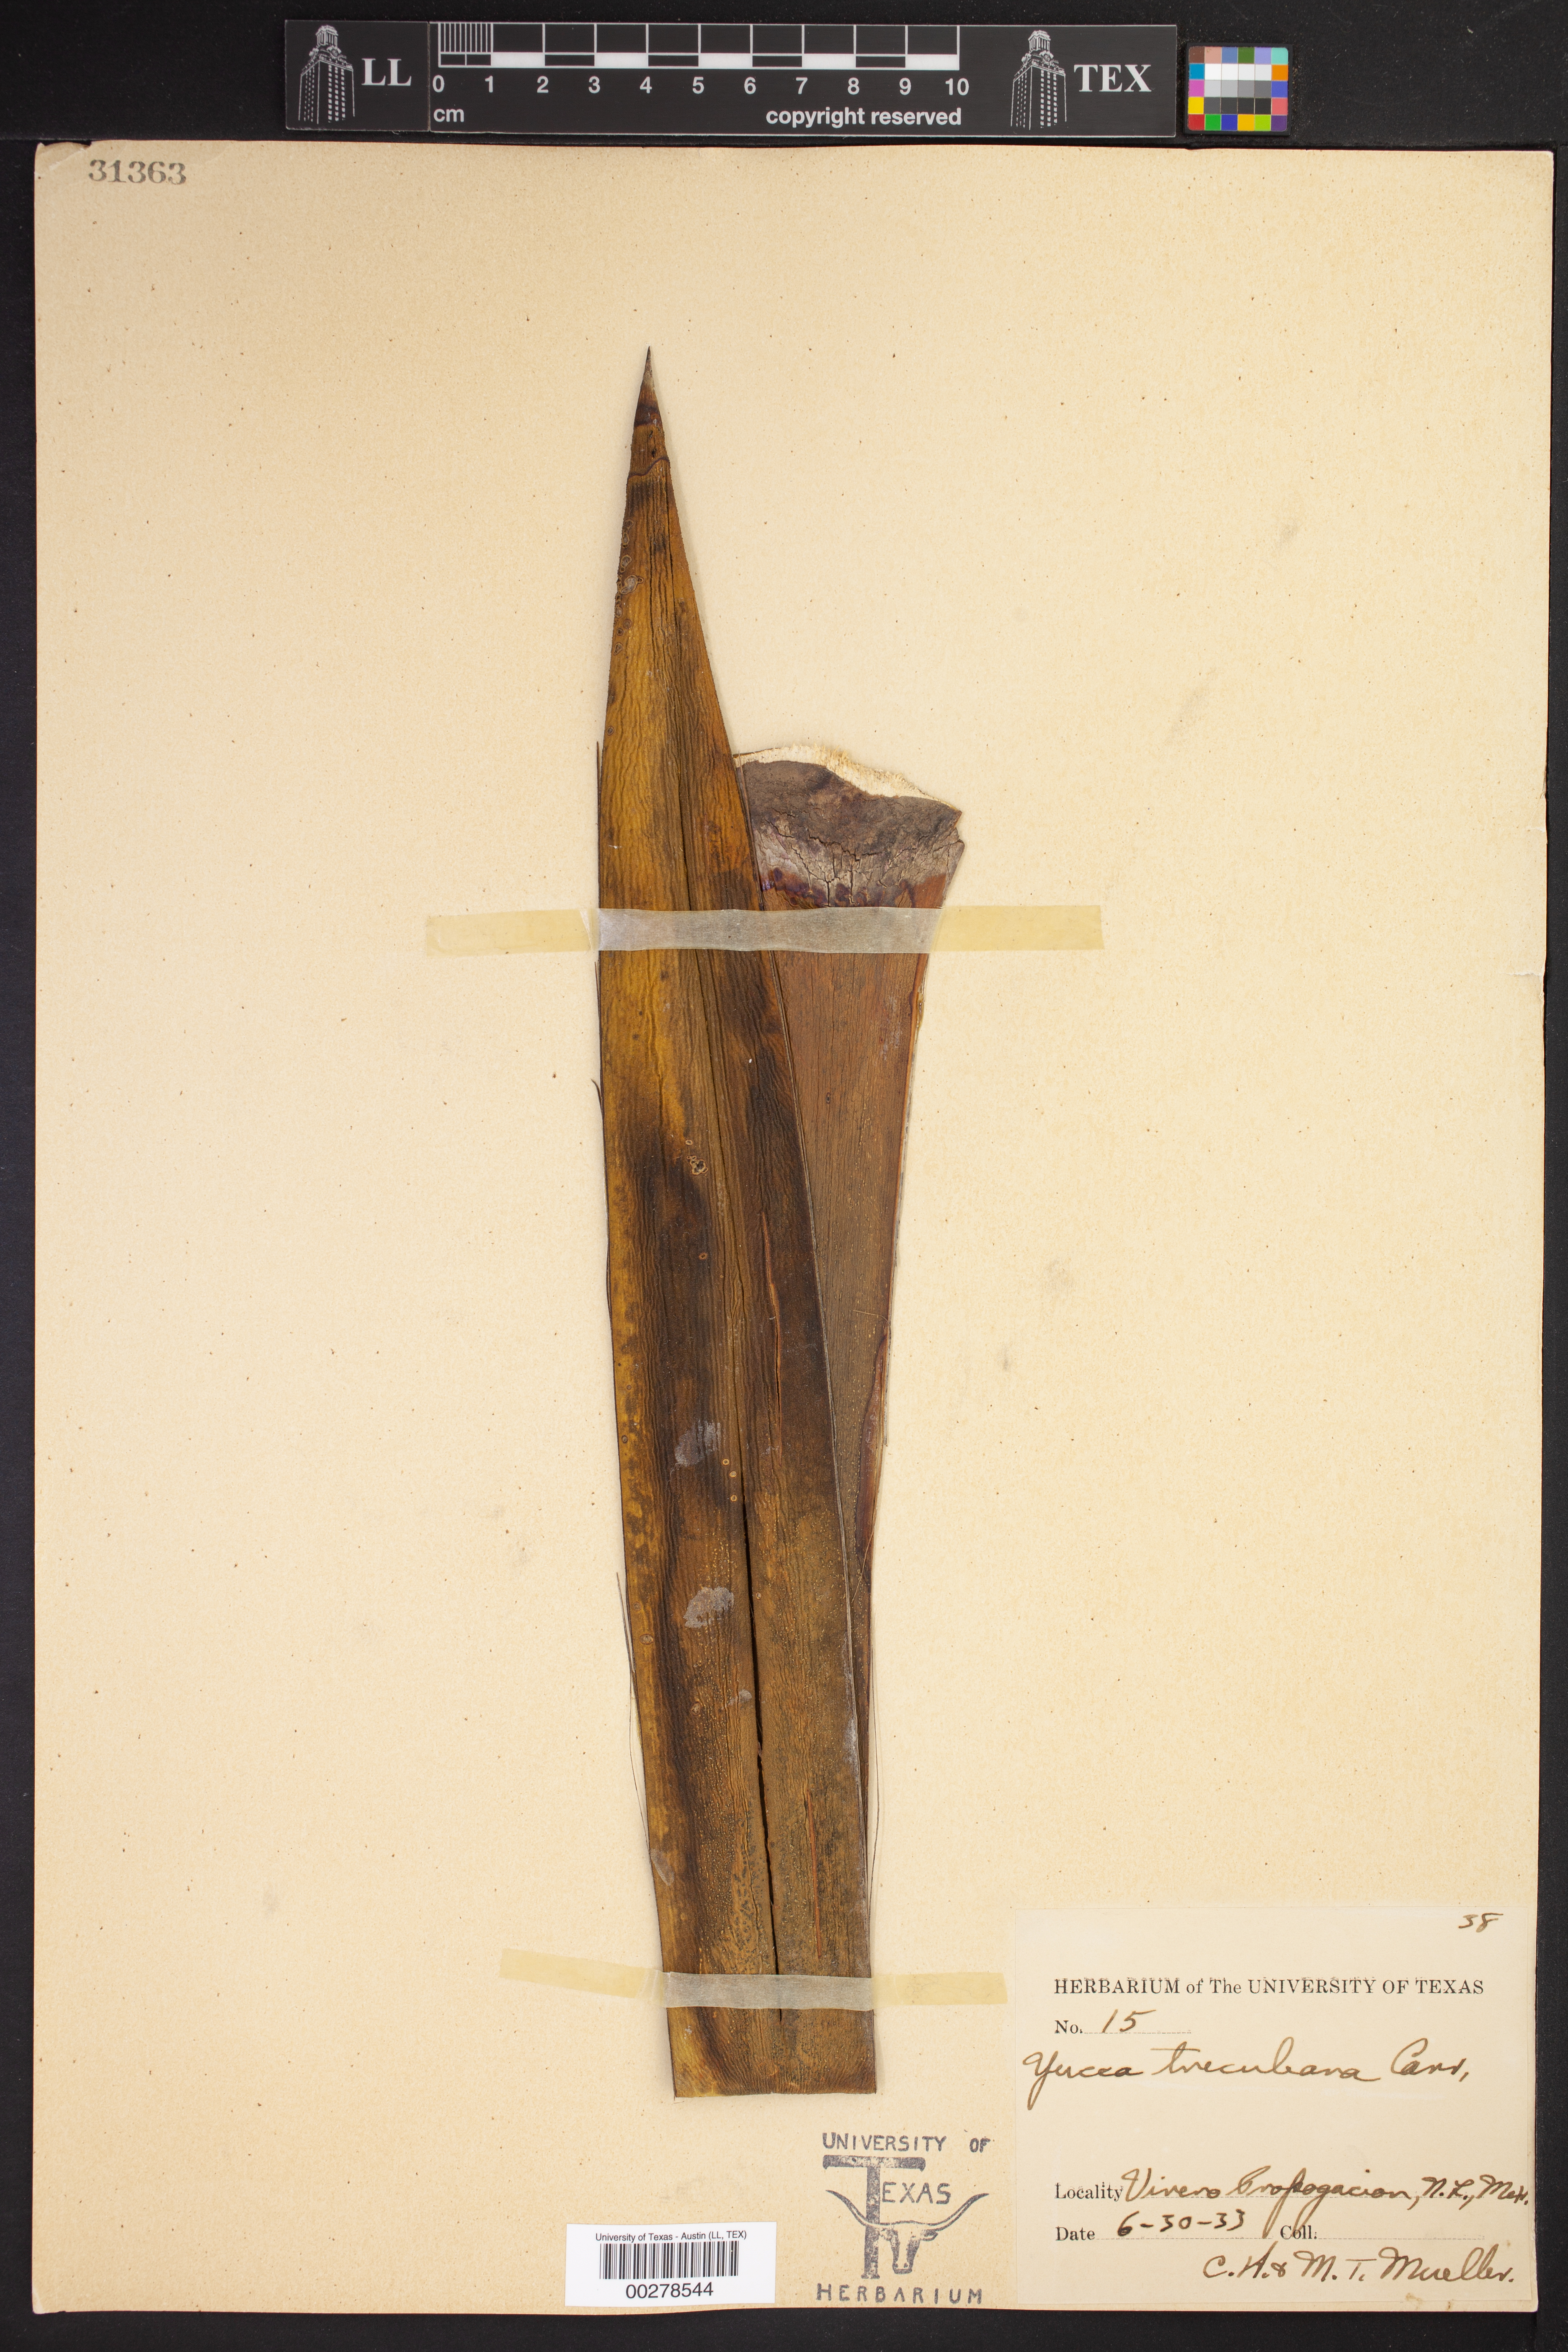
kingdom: Plantae
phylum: Tracheophyta
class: Liliopsida
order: Asparagales
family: Asparagaceae
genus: Yucca
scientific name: Yucca treculeana
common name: Spanish bayonet
